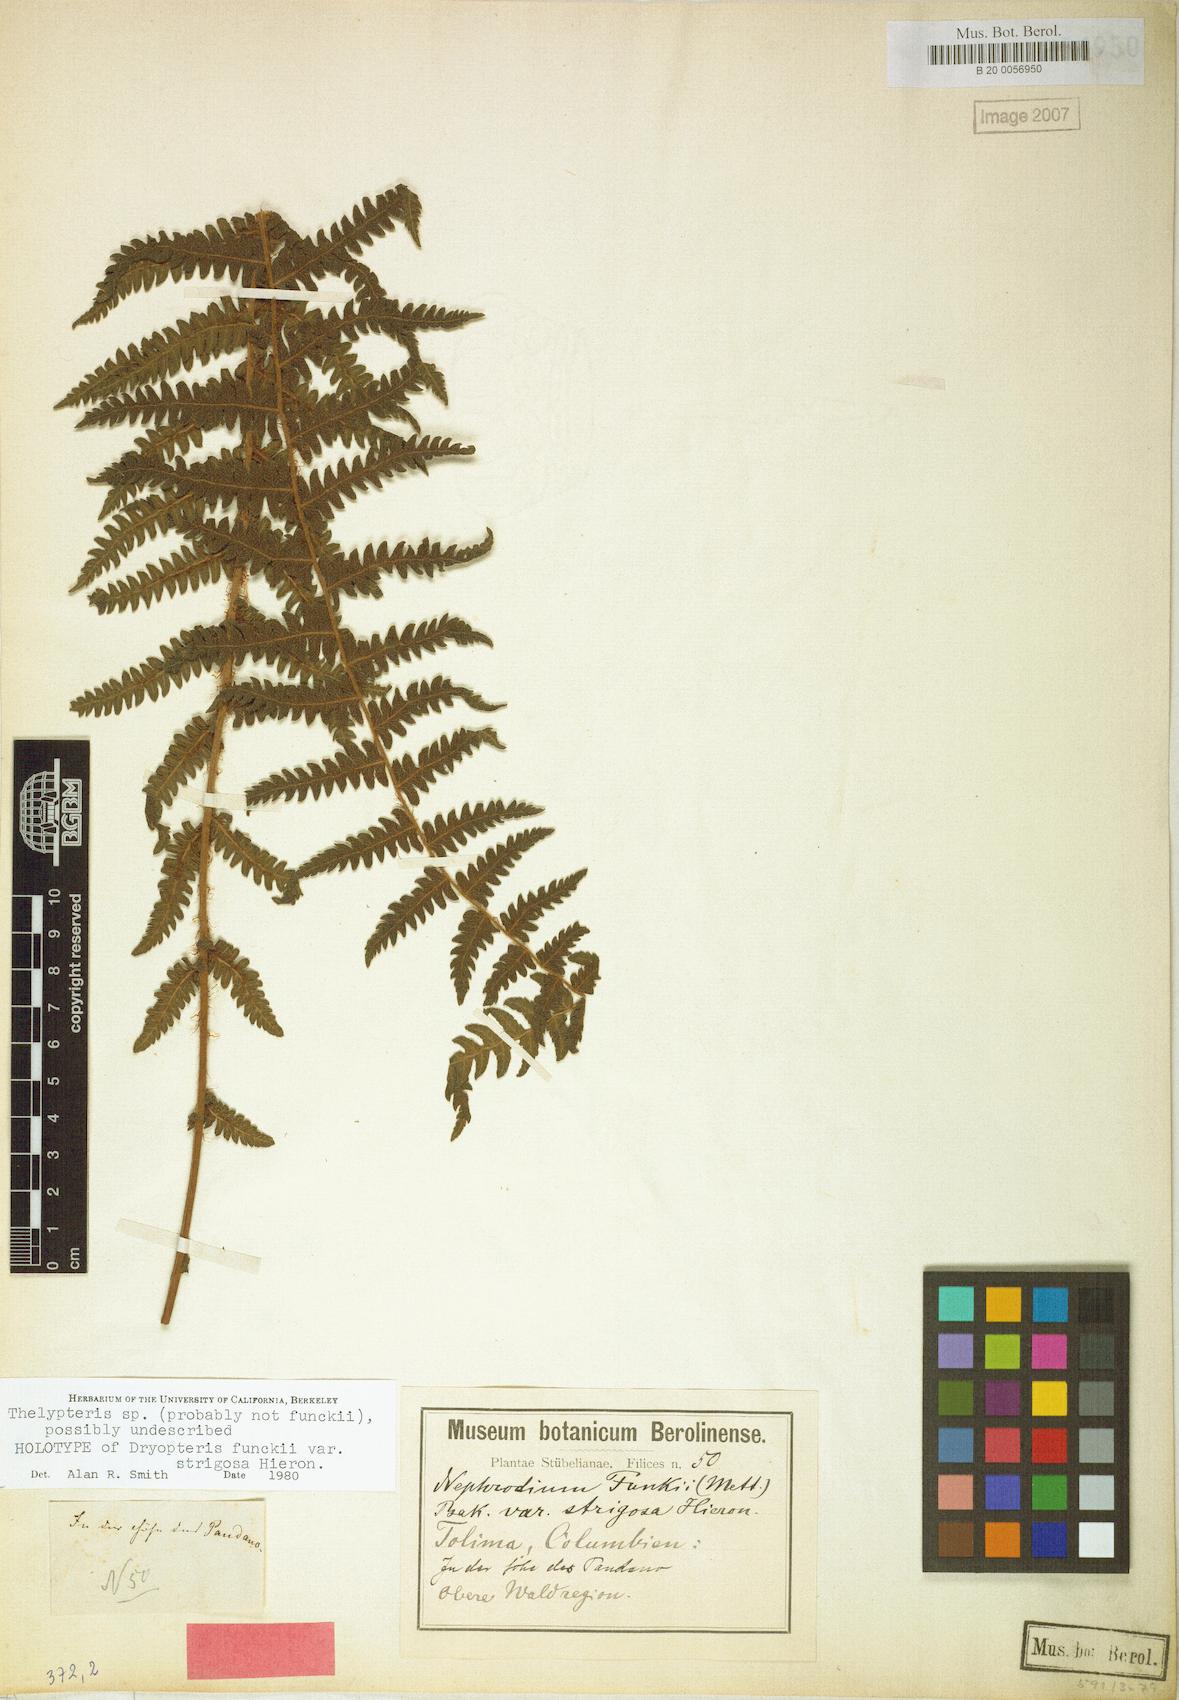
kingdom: Plantae
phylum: Tracheophyta
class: Polypodiopsida
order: Polypodiales
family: Thelypteridaceae
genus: Amauropelta
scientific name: Amauropelta funckii
